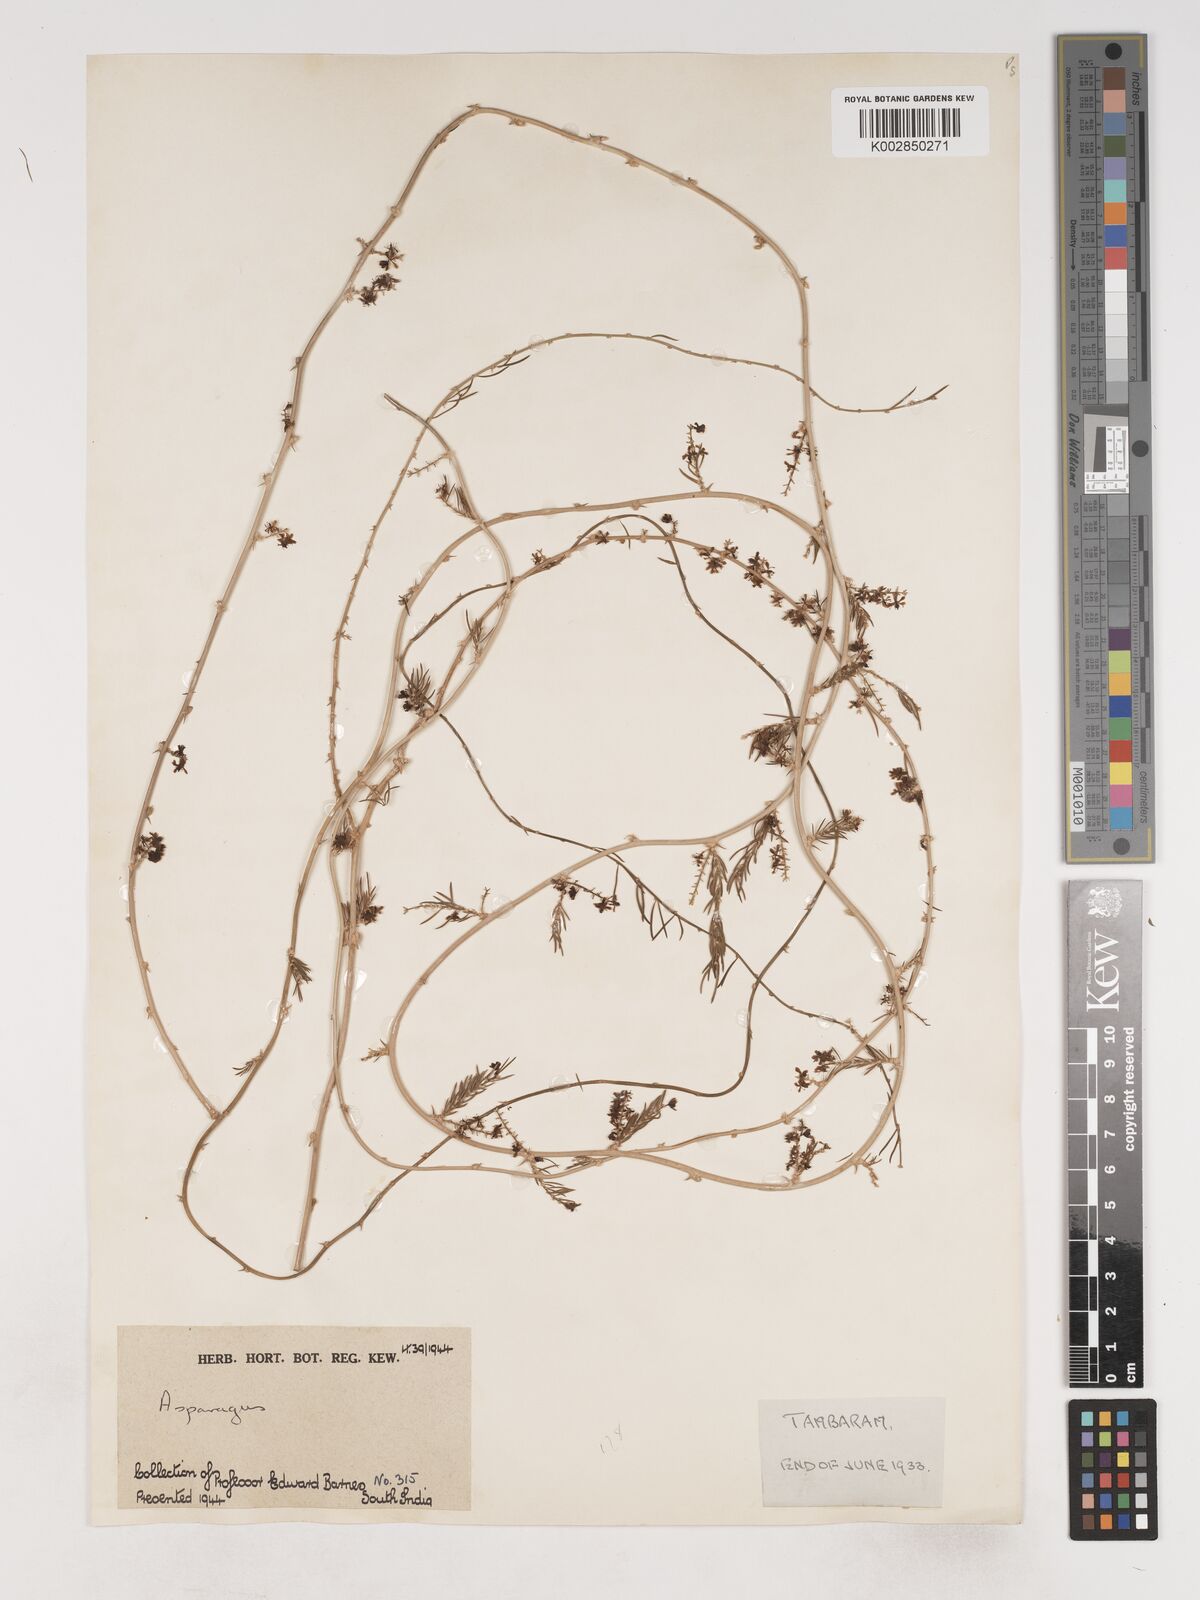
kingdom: Plantae
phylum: Tracheophyta
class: Liliopsida
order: Asparagales
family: Asparagaceae
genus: Asparagus
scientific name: Asparagus
